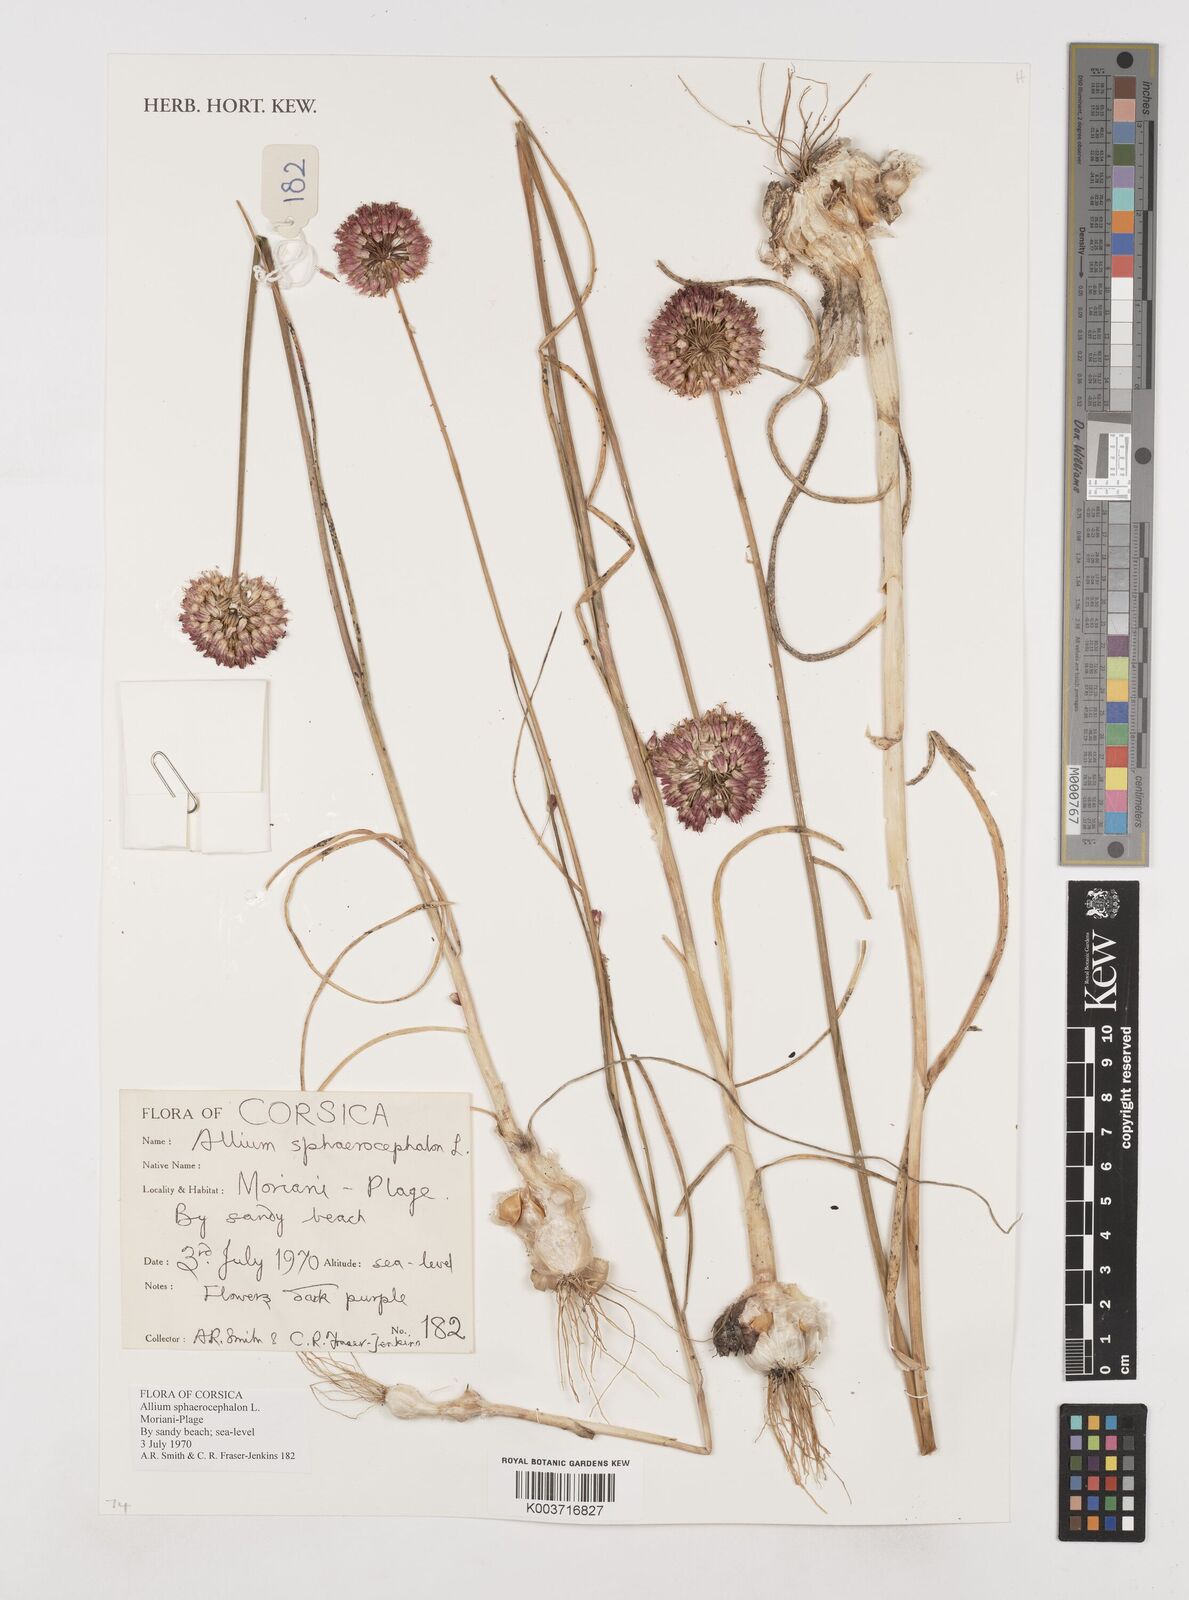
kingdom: Plantae
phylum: Tracheophyta
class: Liliopsida
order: Asparagales
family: Amaryllidaceae
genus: Allium
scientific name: Allium sphaerocephalon
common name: Round-headed leek
